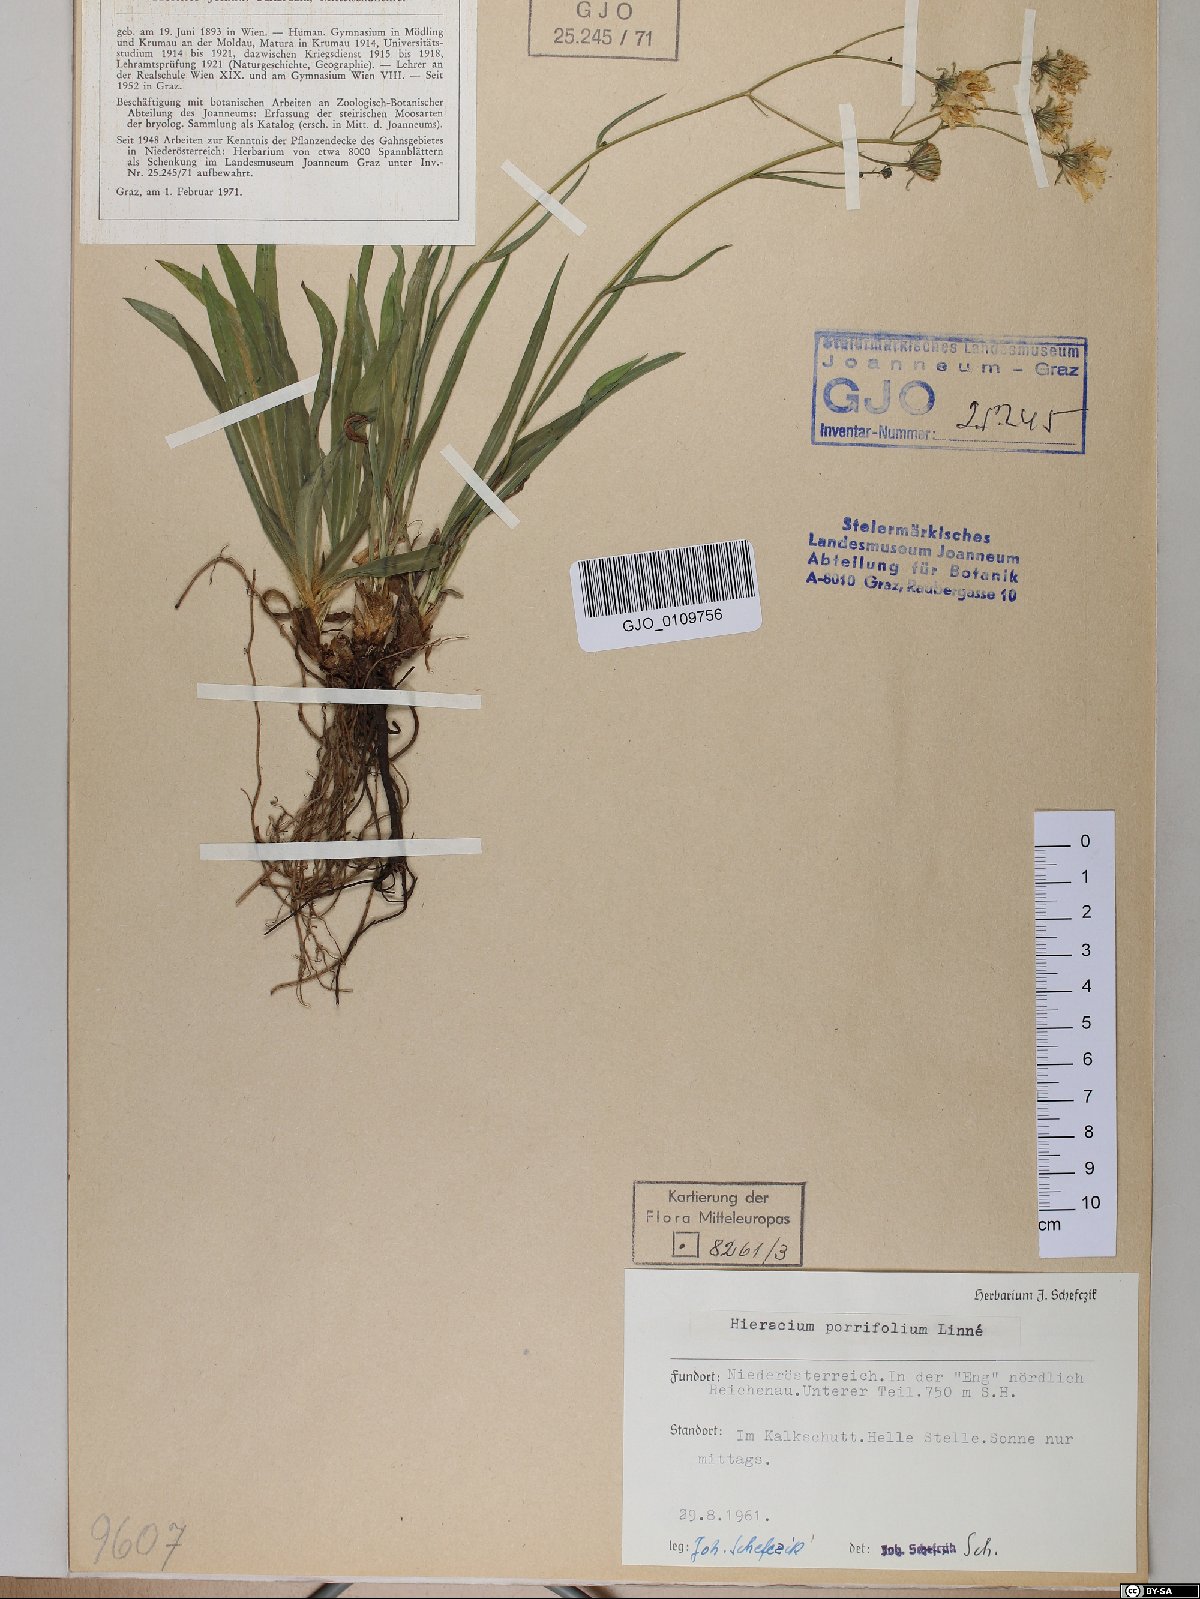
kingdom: Plantae
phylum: Tracheophyta
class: Magnoliopsida
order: Asterales
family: Asteraceae
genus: Hieracium
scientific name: Hieracium porrifolium
